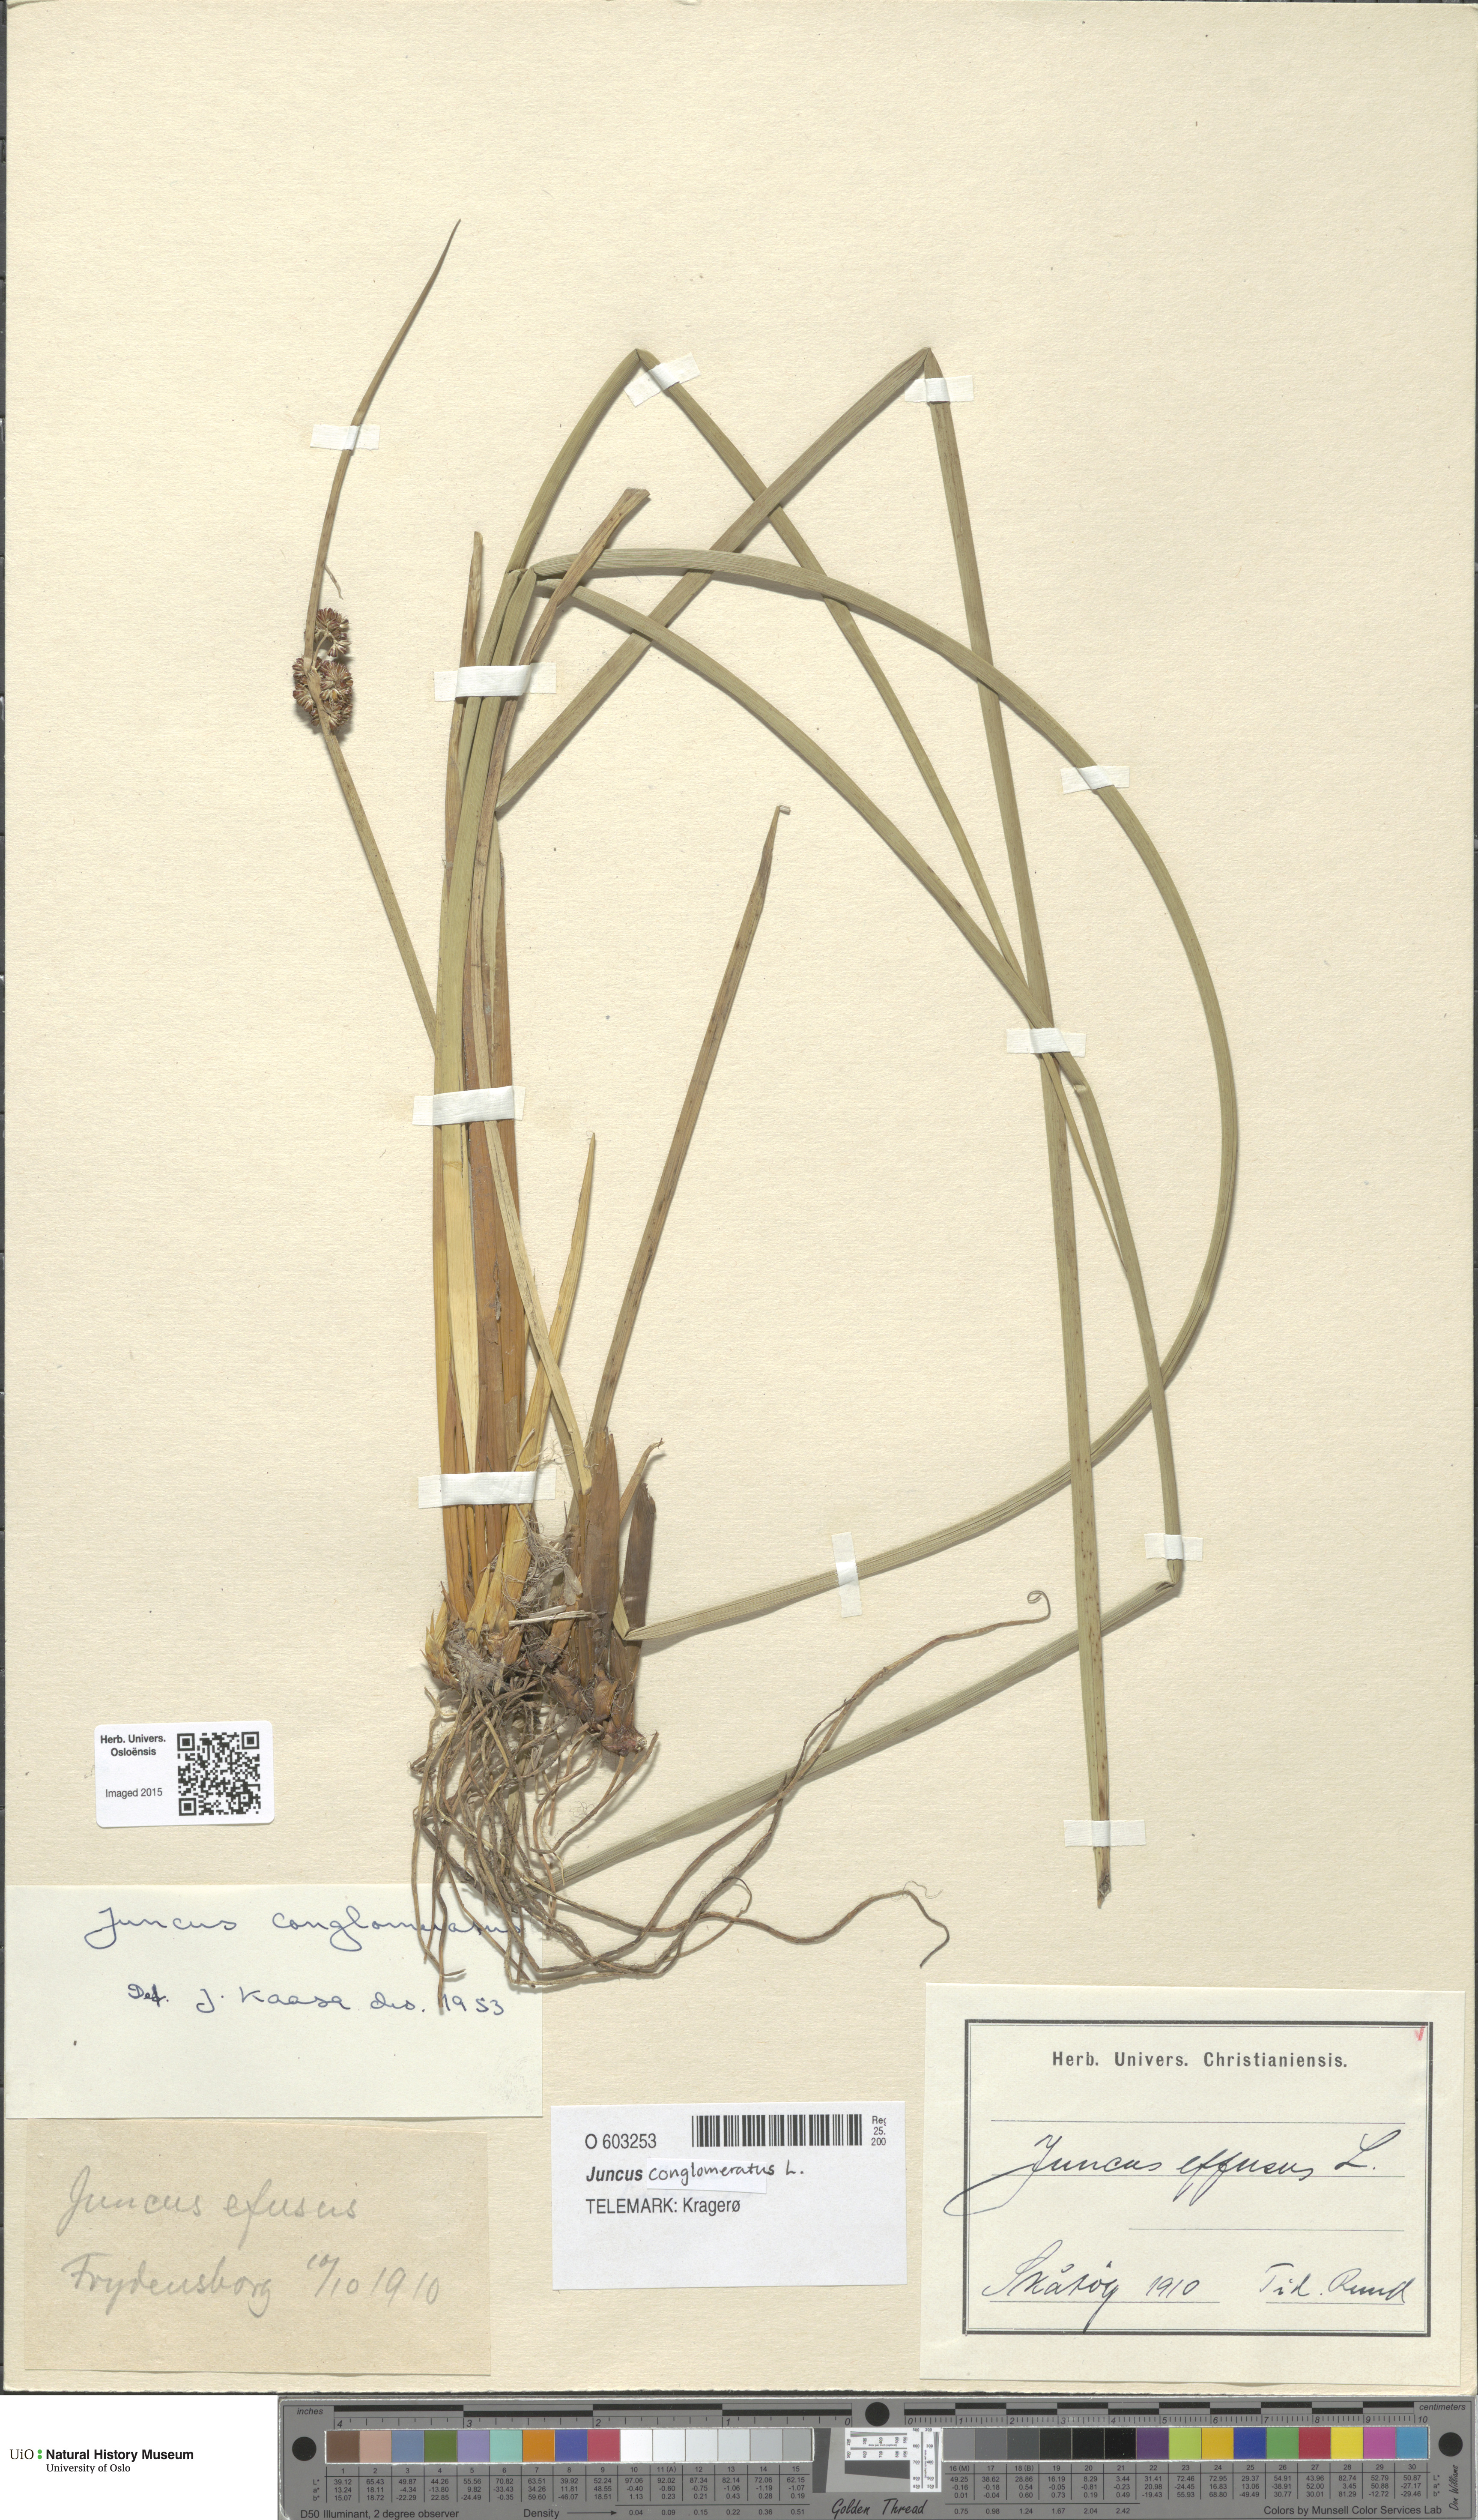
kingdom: Plantae
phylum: Tracheophyta
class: Liliopsida
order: Poales
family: Juncaceae
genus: Juncus
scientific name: Juncus conglomeratus
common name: Compact rush
